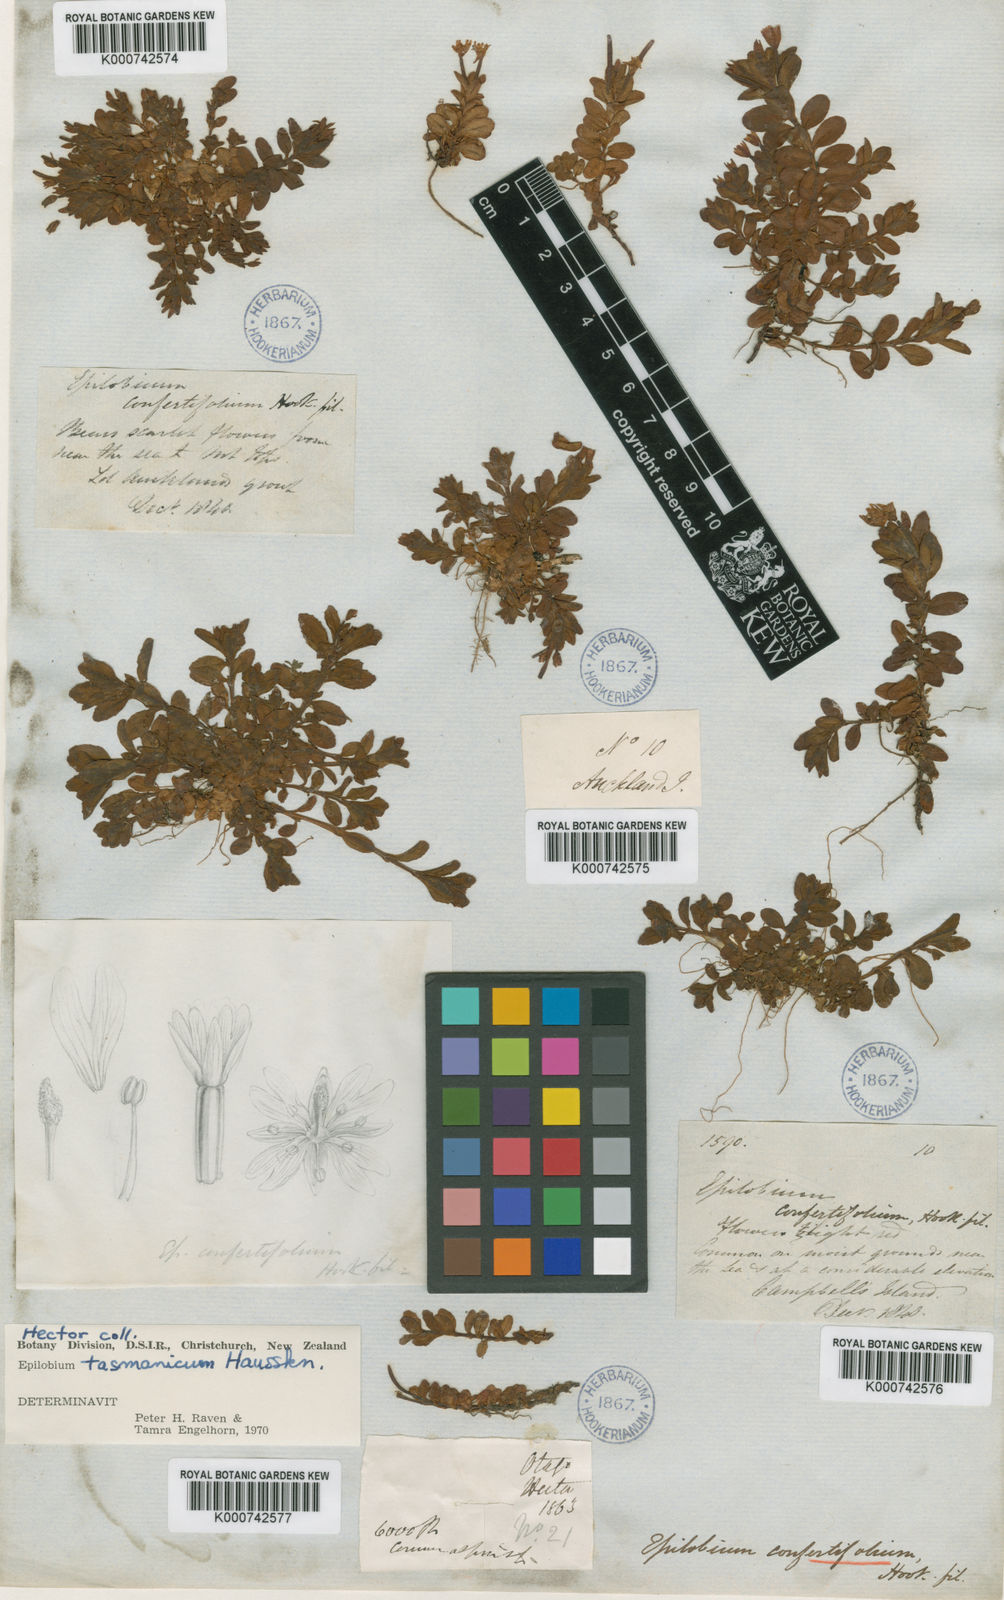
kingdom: Plantae
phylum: Tracheophyta
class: Magnoliopsida
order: Myrtales
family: Onagraceae
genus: Epilobium
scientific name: Epilobium confertifolium
